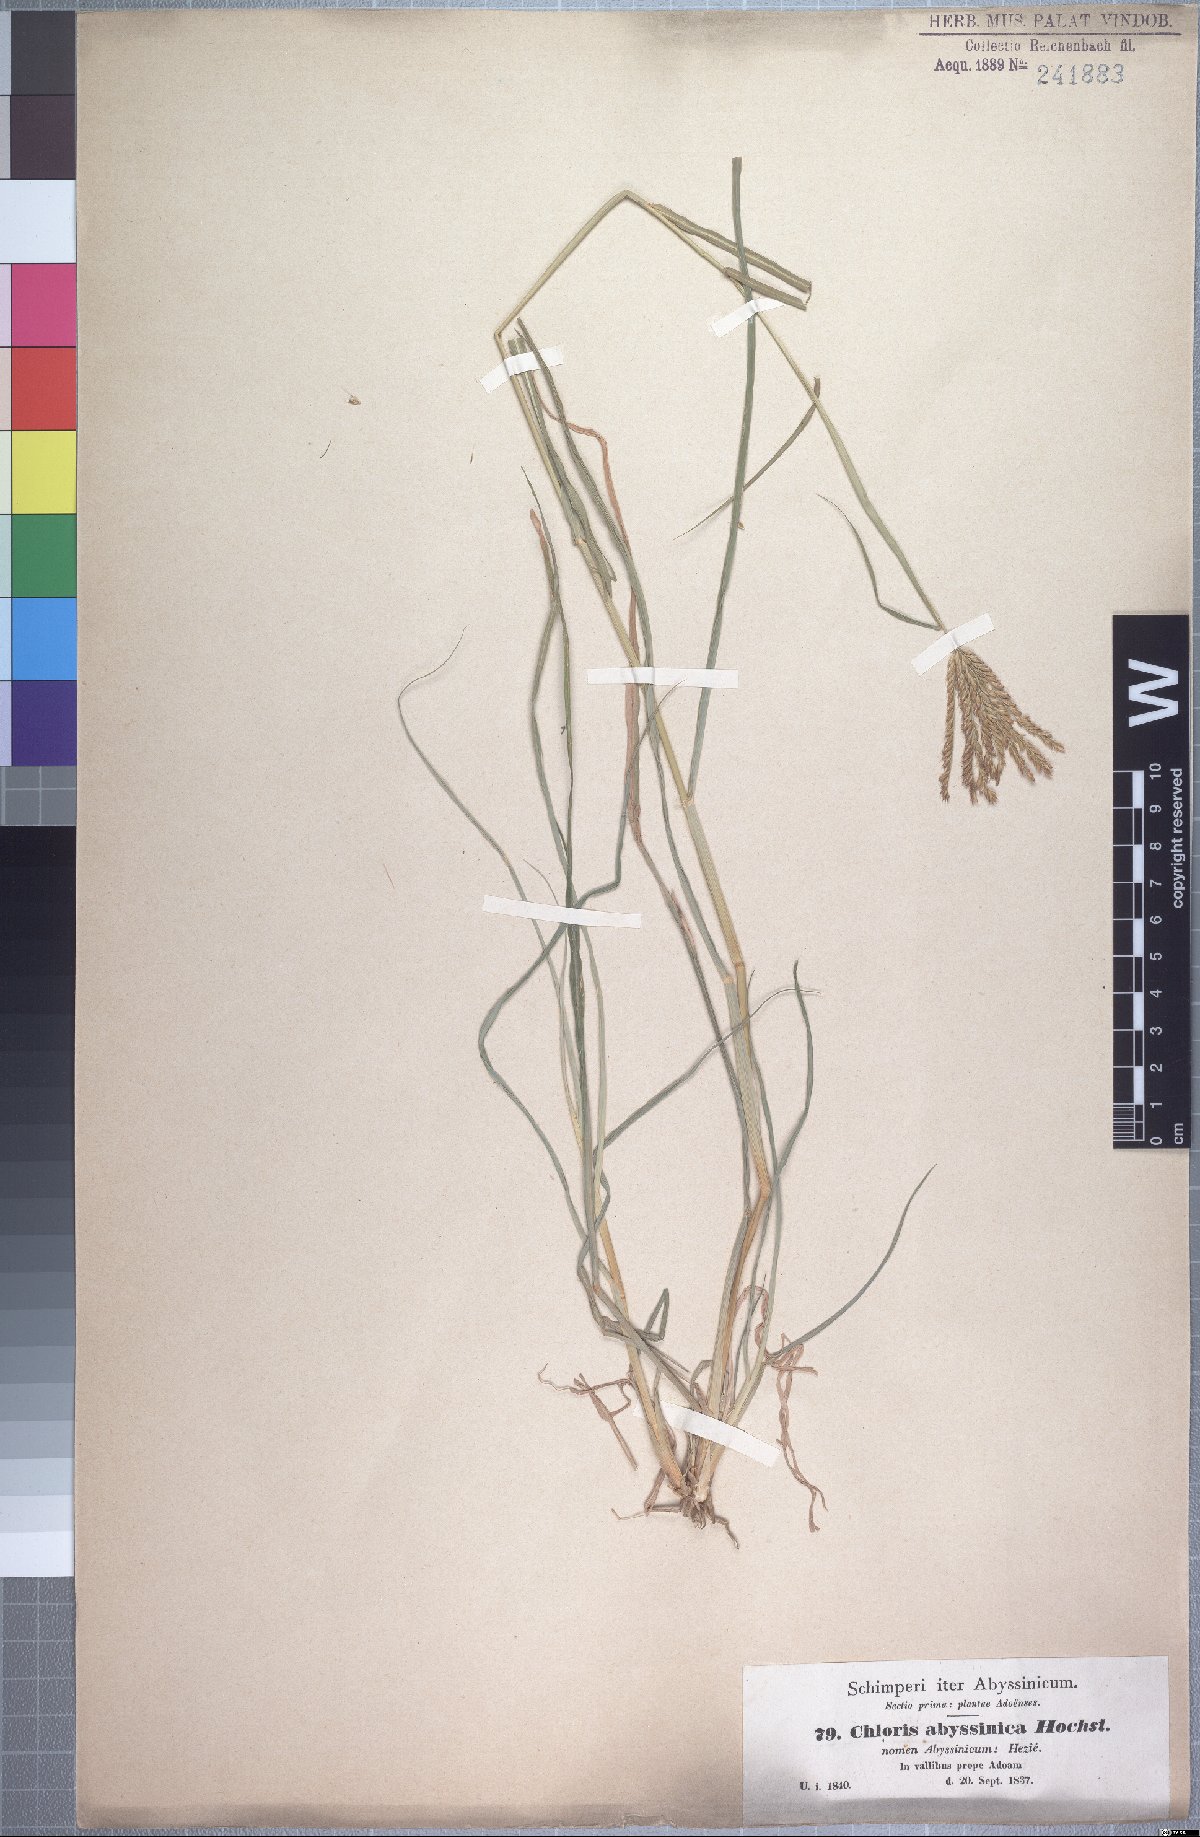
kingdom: Plantae
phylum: Tracheophyta
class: Liliopsida
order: Poales
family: Poaceae
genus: Chloris
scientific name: Chloris gayana
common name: Rhodes grass
